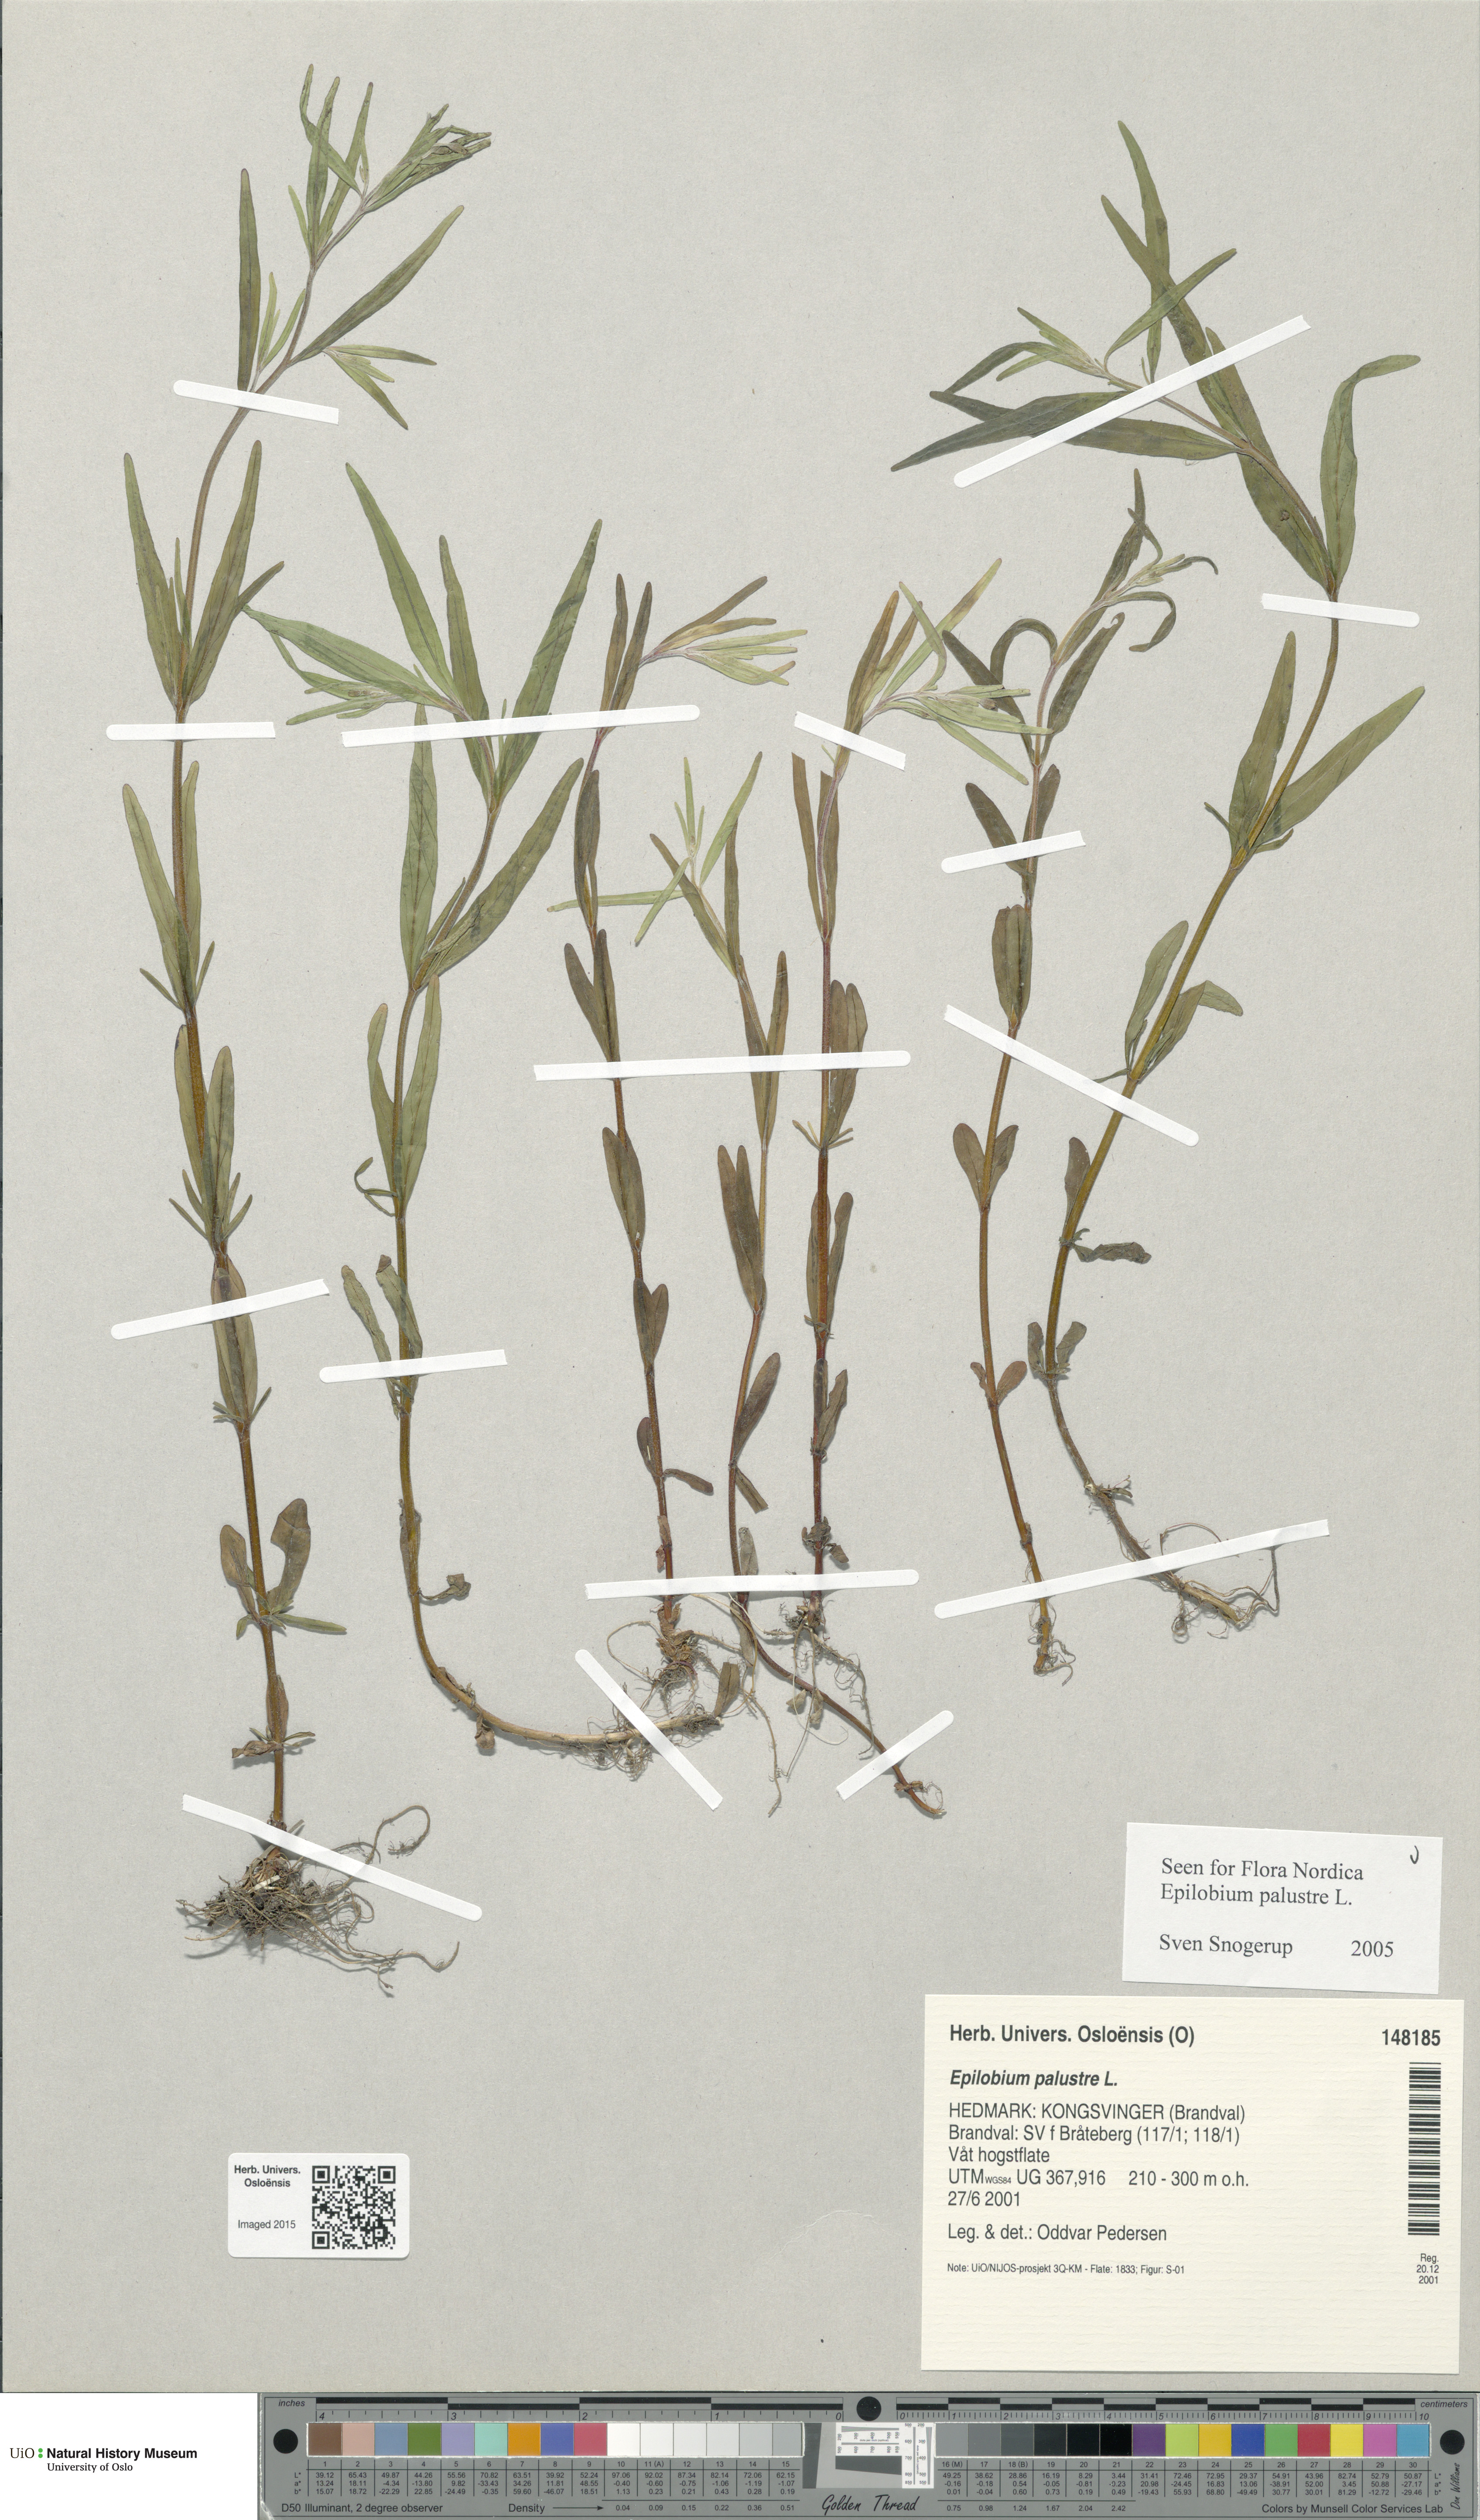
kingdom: Plantae
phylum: Tracheophyta
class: Magnoliopsida
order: Myrtales
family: Onagraceae
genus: Epilobium
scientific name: Epilobium palustre
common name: Marsh willowherb
